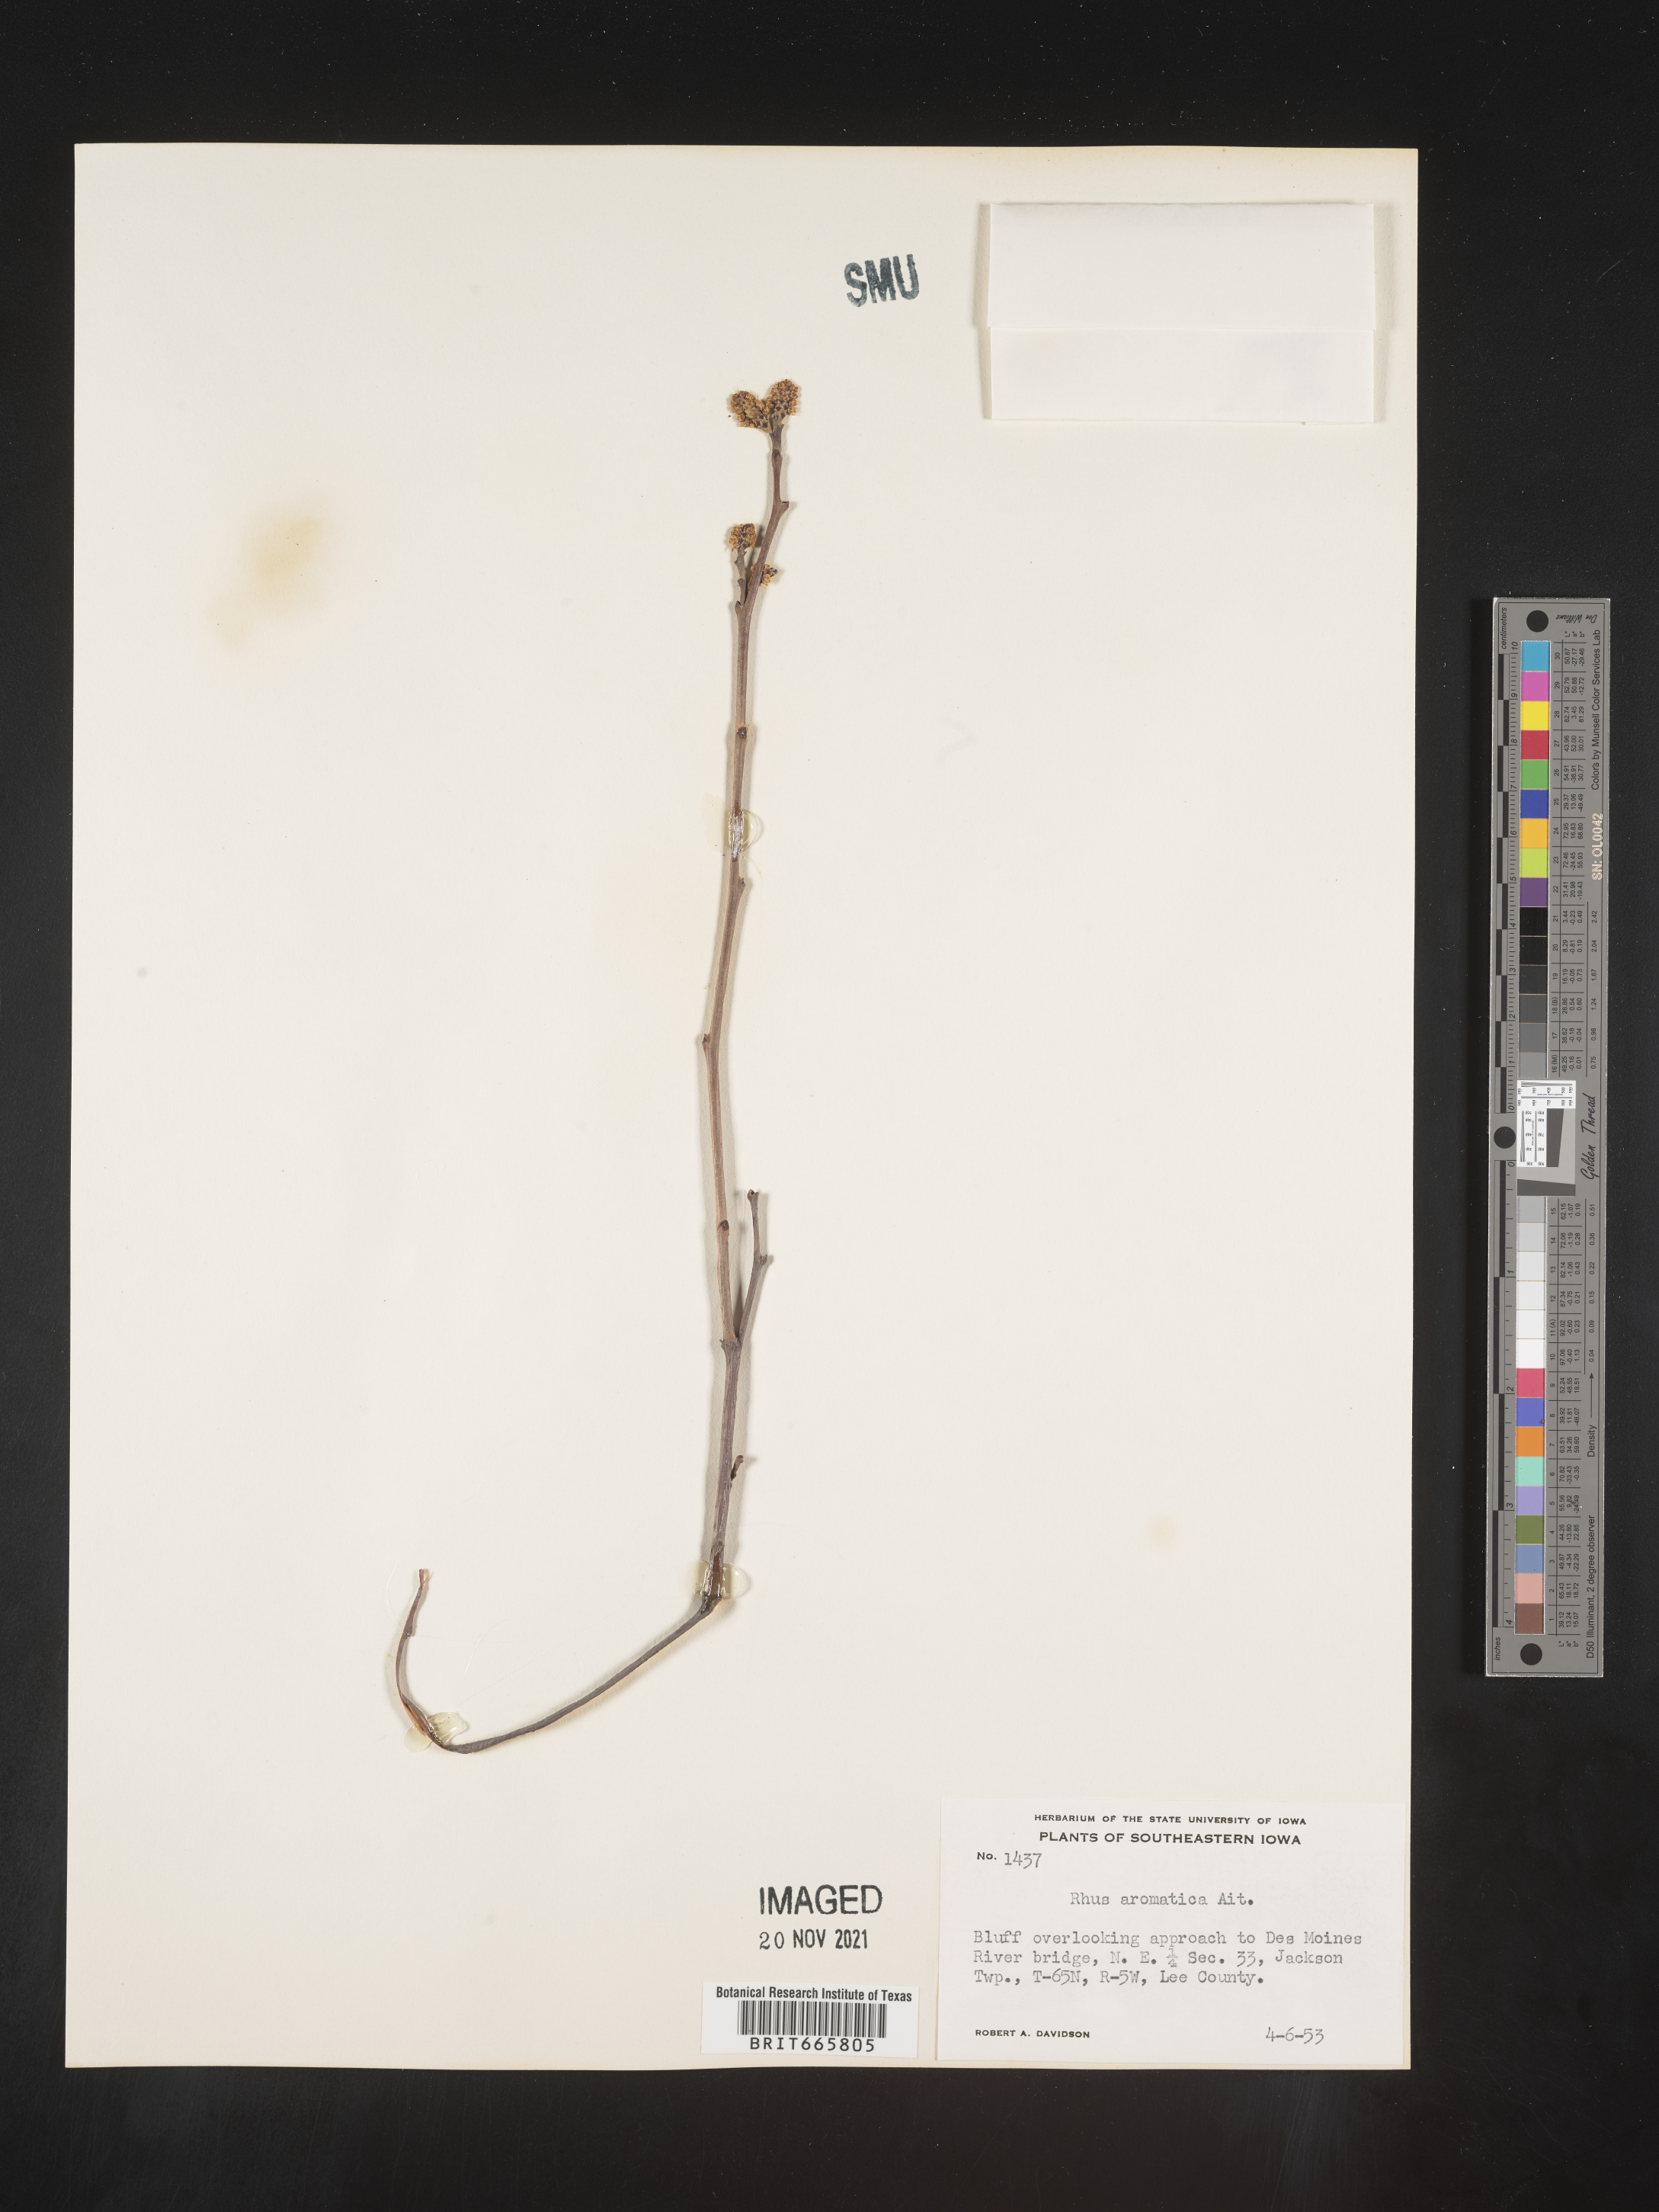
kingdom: Plantae
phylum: Tracheophyta
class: Magnoliopsida
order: Sapindales
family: Anacardiaceae
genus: Rhus
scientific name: Rhus aromatica
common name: Aromatic sumac
